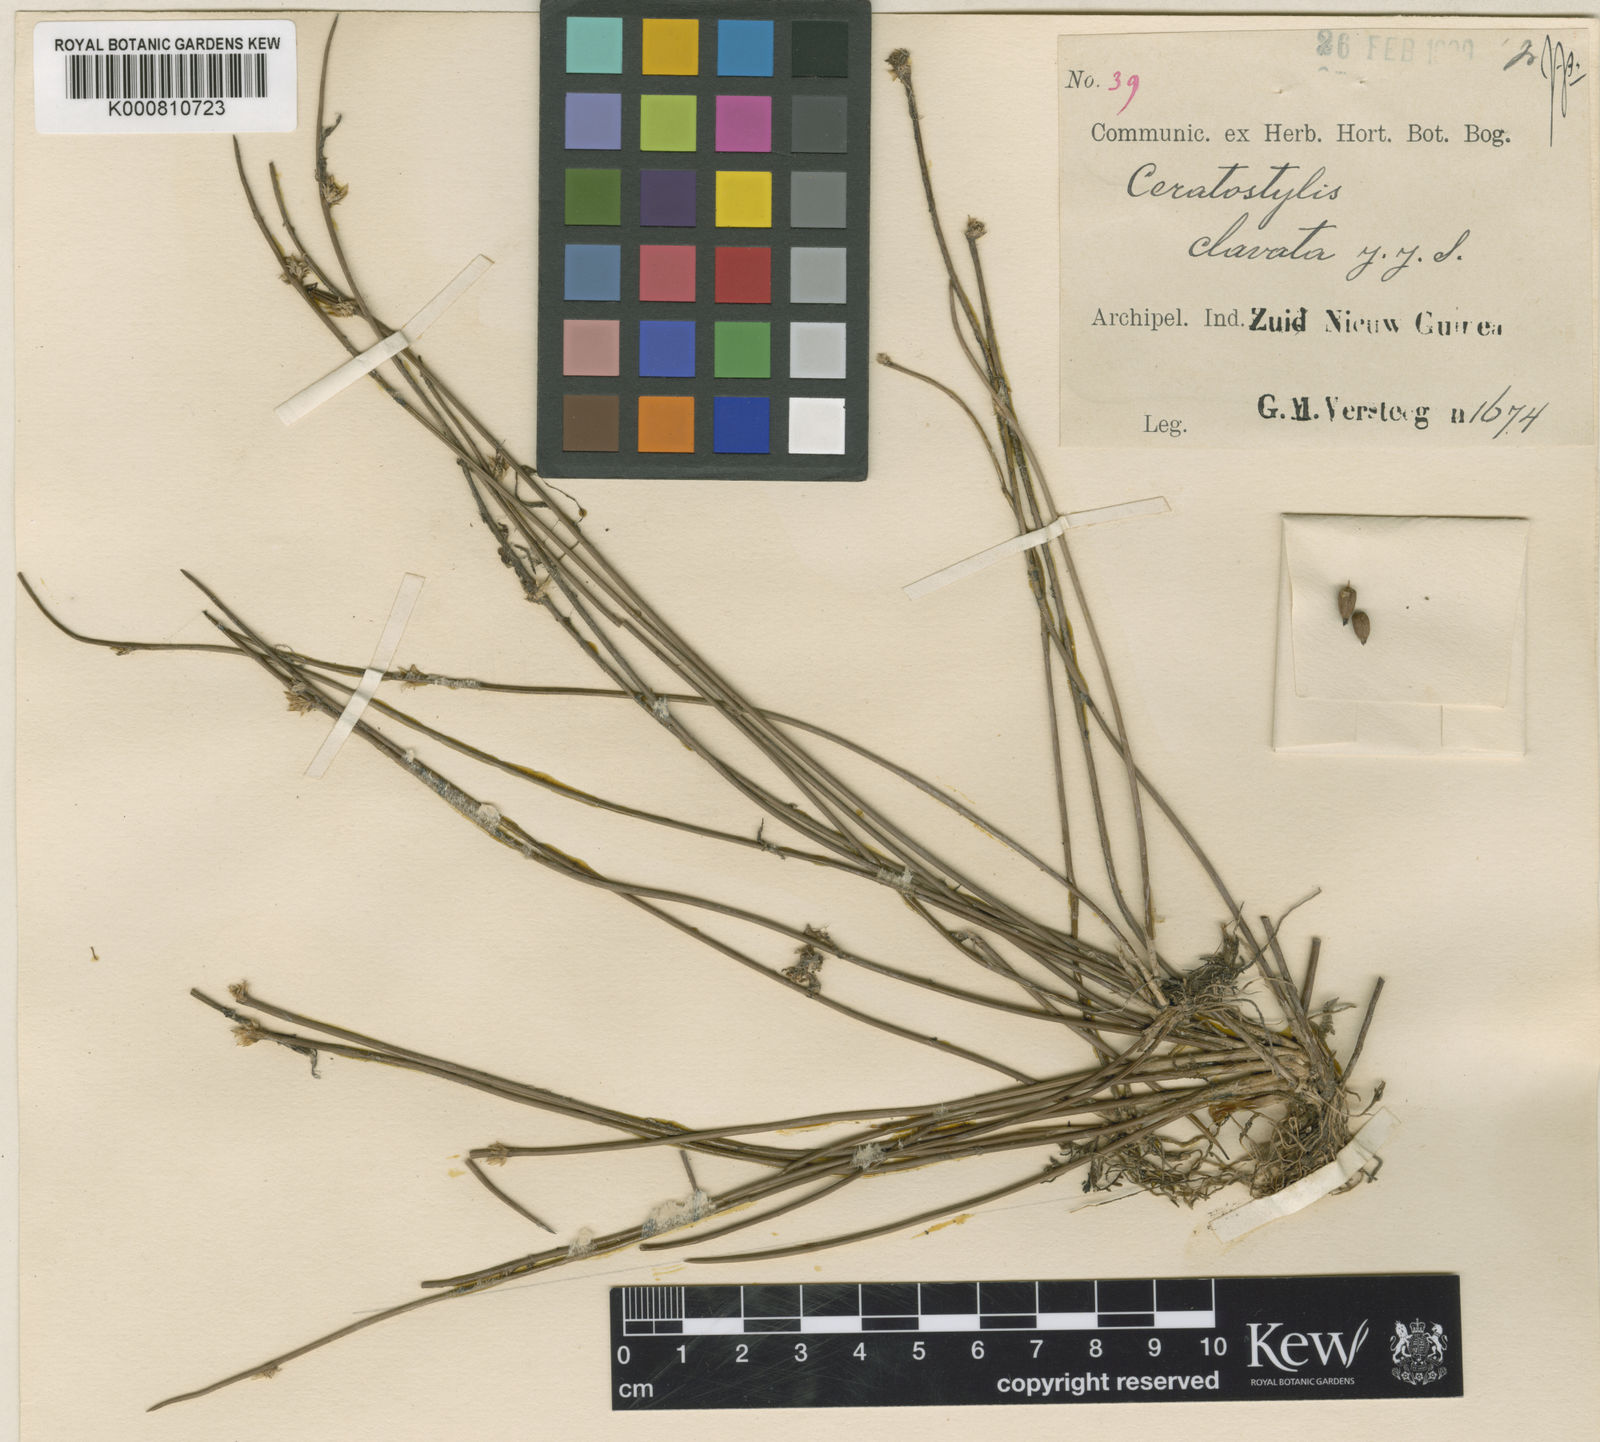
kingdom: Plantae
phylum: Tracheophyta
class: Liliopsida
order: Asparagales
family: Orchidaceae
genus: Ceratostylis
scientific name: Ceratostylis clavata
